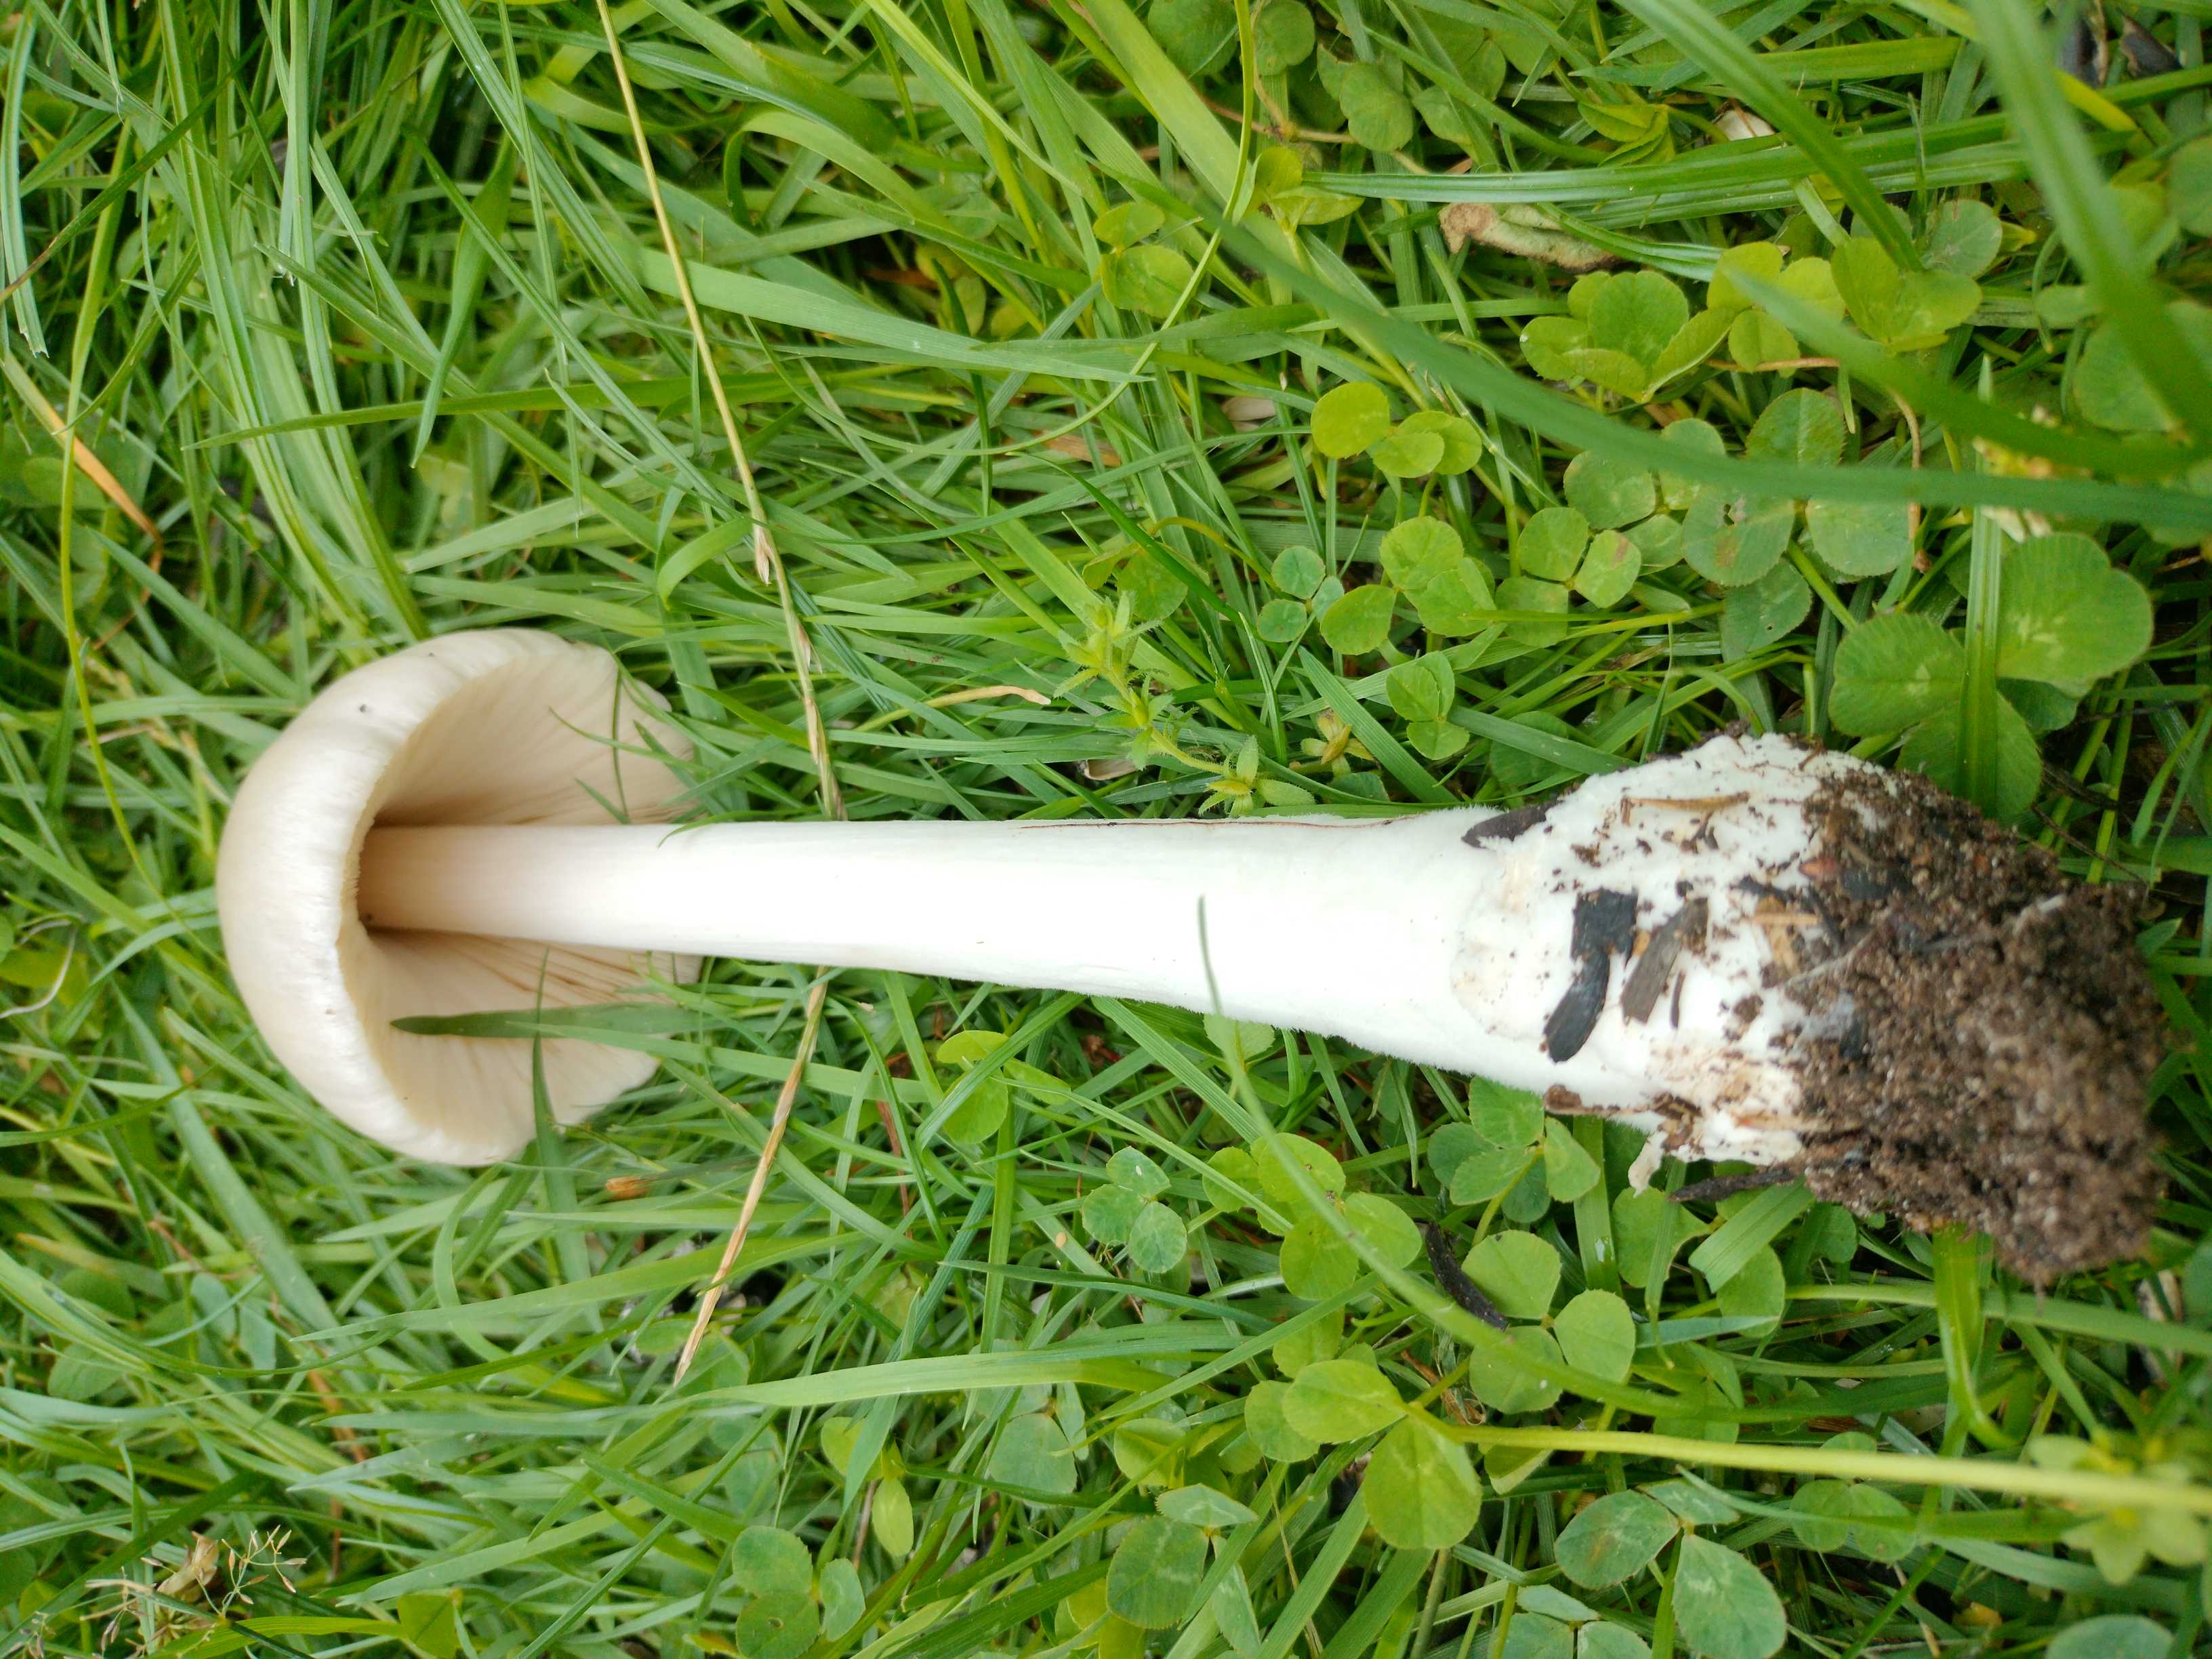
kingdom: Fungi
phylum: Basidiomycota
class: Agaricomycetes
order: Agaricales
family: Pluteaceae
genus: Volvopluteus
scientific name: Volvopluteus gloiocephalus
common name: høj posesvamp
